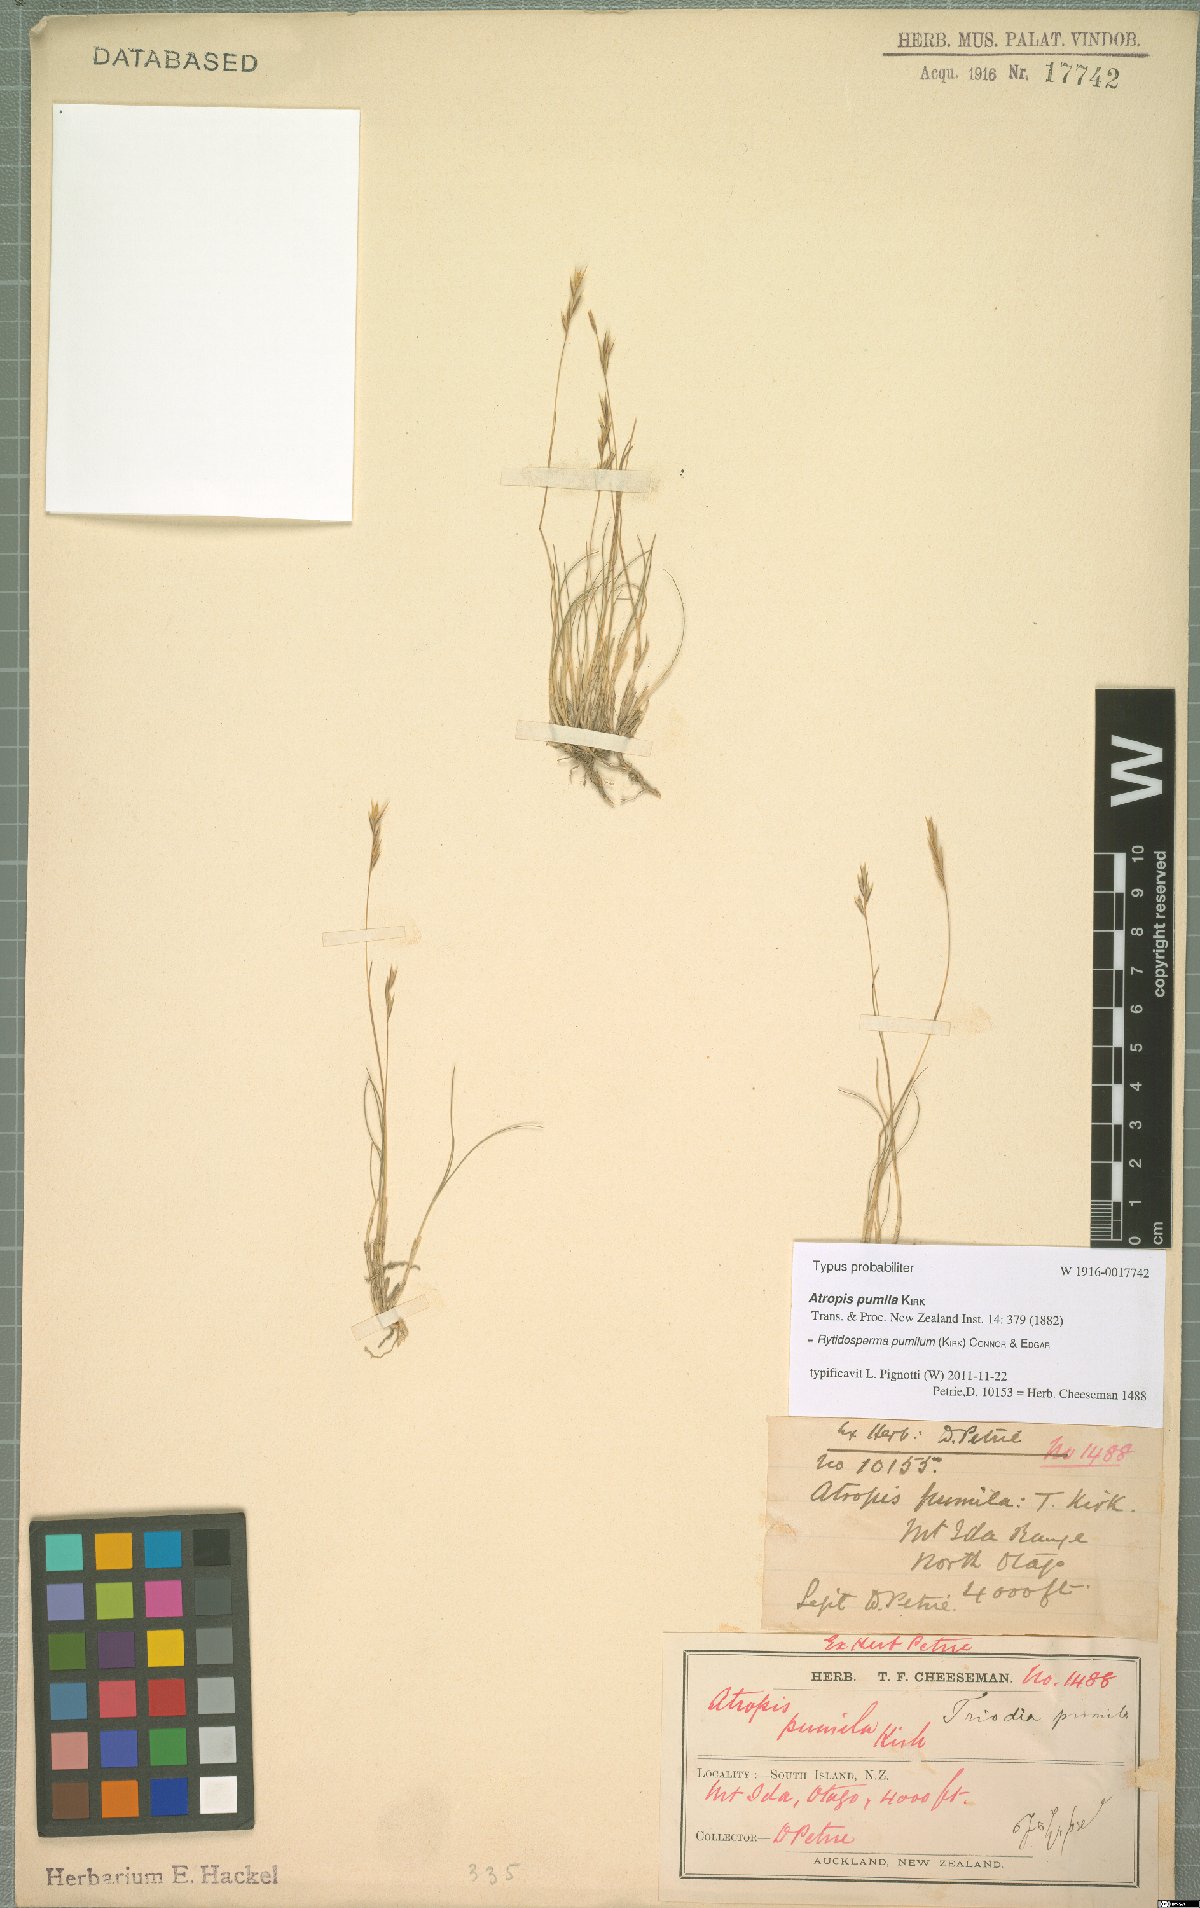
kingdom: Plantae
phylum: Tracheophyta
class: Liliopsida
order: Poales
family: Poaceae
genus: Rytidosperma
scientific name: Rytidosperma pumilum
